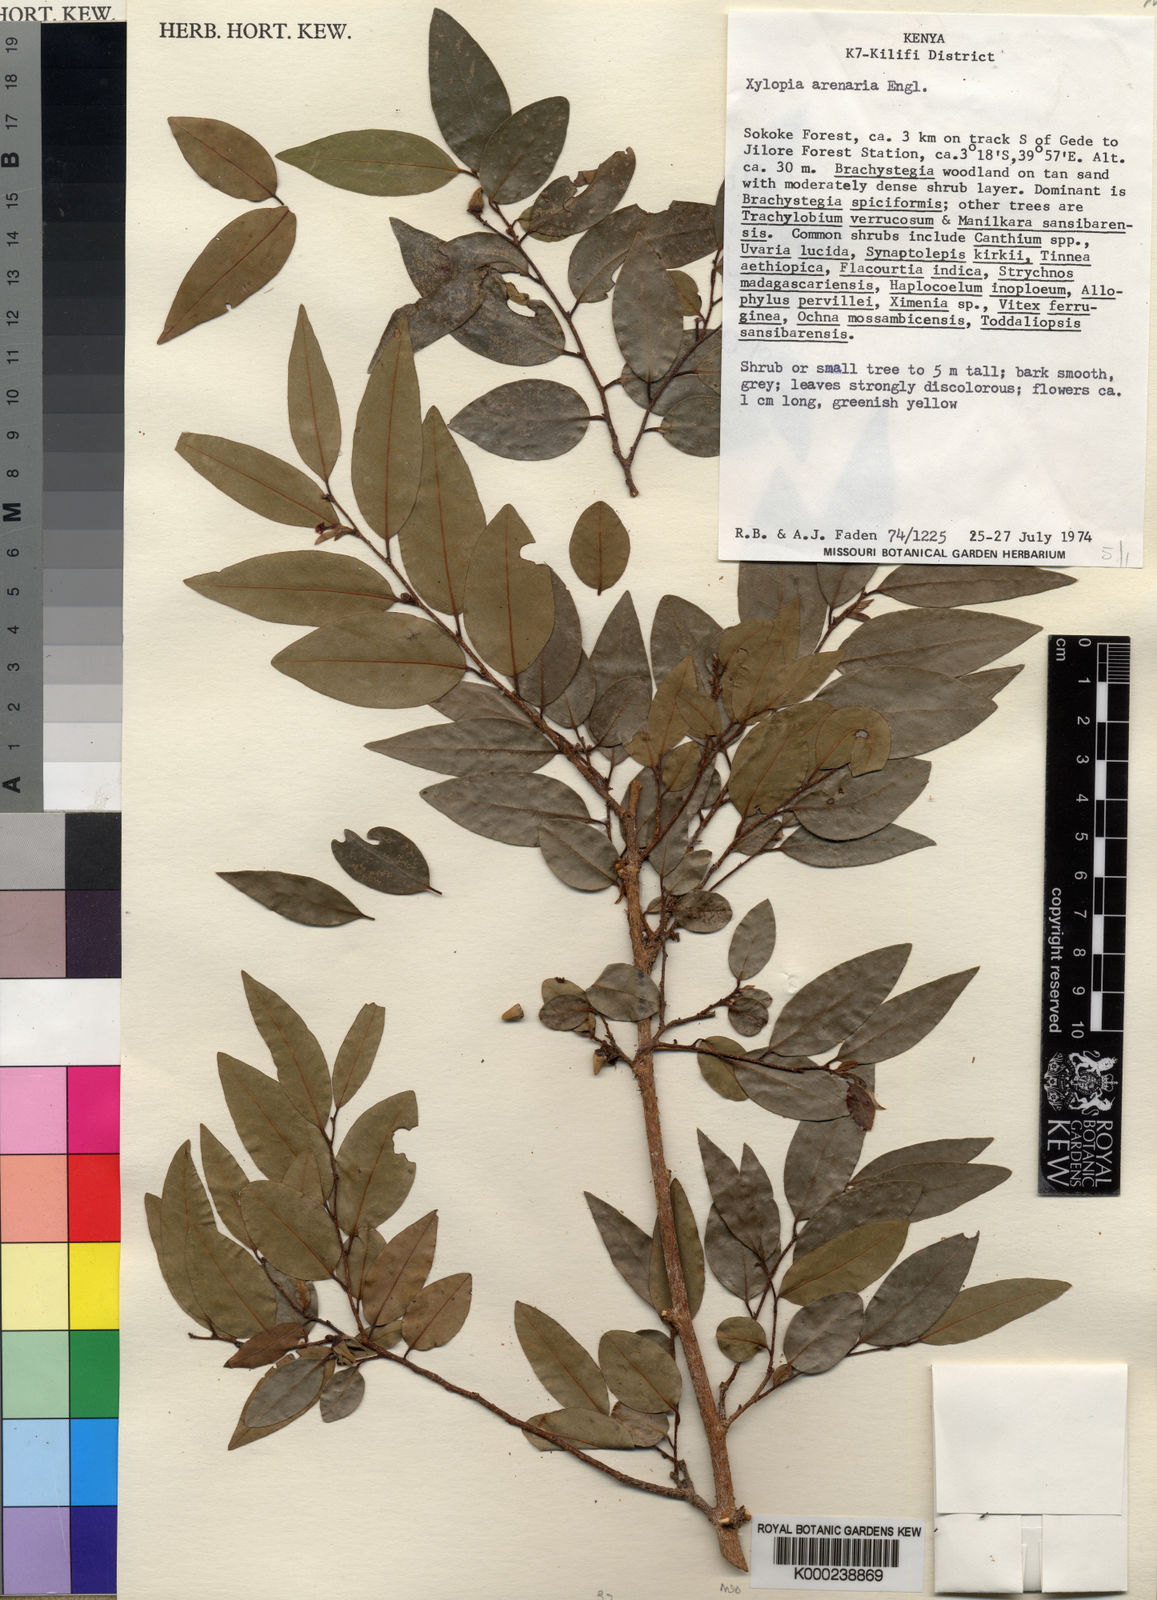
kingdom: Plantae
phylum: Tracheophyta
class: Magnoliopsida
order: Magnoliales
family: Annonaceae
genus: Xylopia
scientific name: Xylopia arenaria
